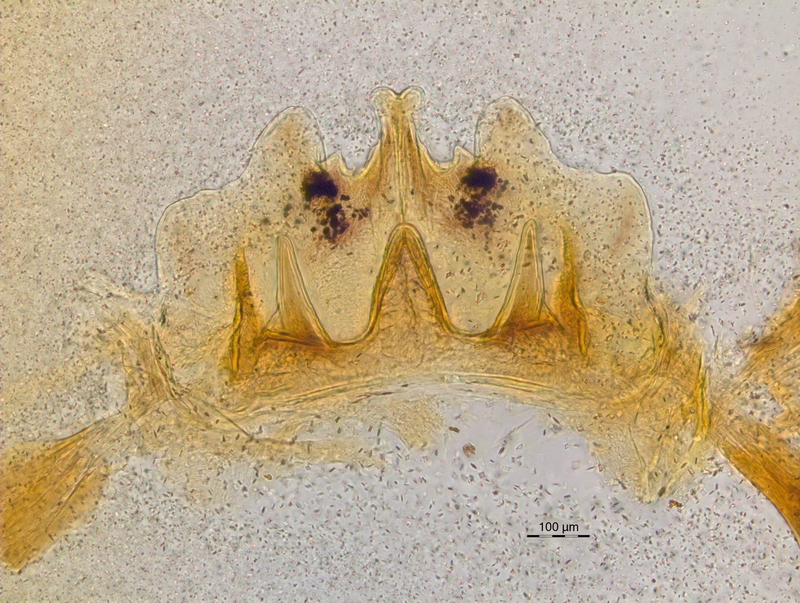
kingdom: Animalia
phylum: Arthropoda
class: Diplopoda
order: Chordeumatida
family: Craspedosomatidae
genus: Craspedosoma
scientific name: Craspedosoma rawlinsii
